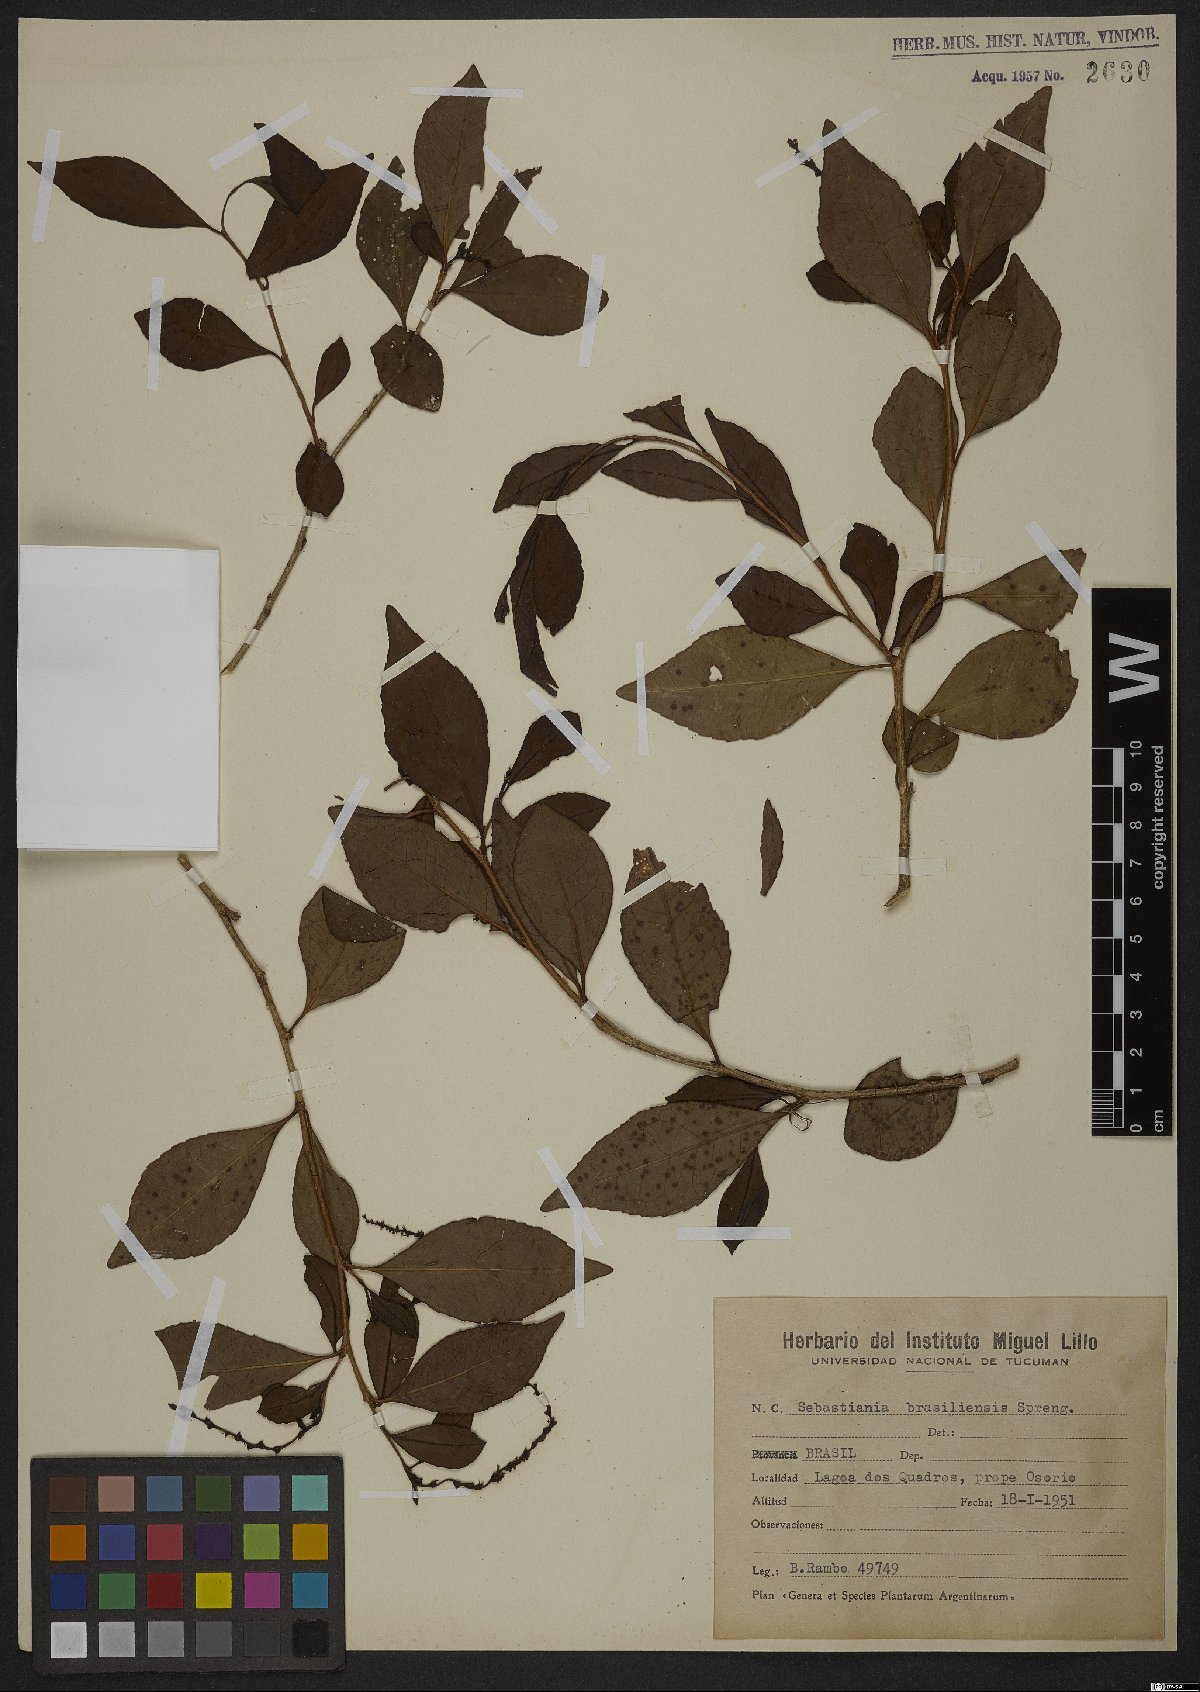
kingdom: Plantae
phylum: Tracheophyta
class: Magnoliopsida
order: Malpighiales
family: Euphorbiaceae
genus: Sebastiania
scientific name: Sebastiania brasiliensis
